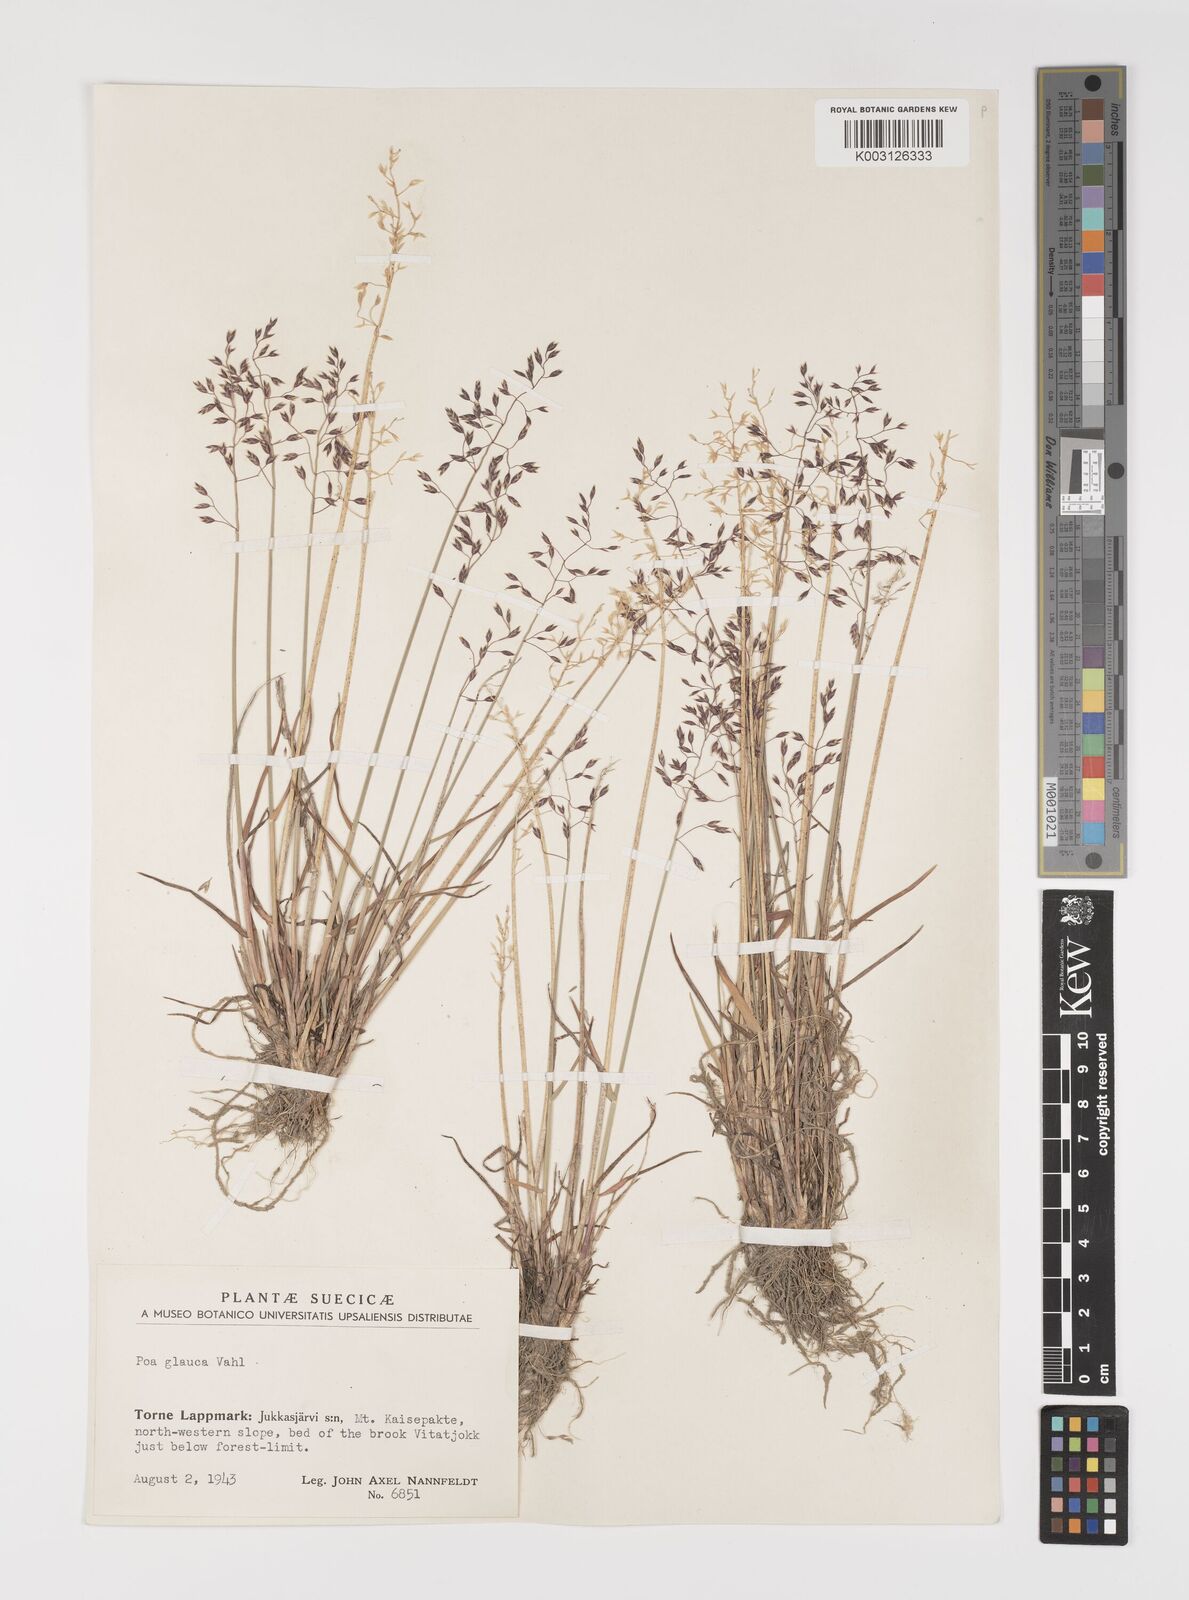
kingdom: Plantae
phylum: Tracheophyta
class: Liliopsida
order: Poales
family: Poaceae
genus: Poa
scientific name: Poa glauca
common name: Glaucous bluegrass
